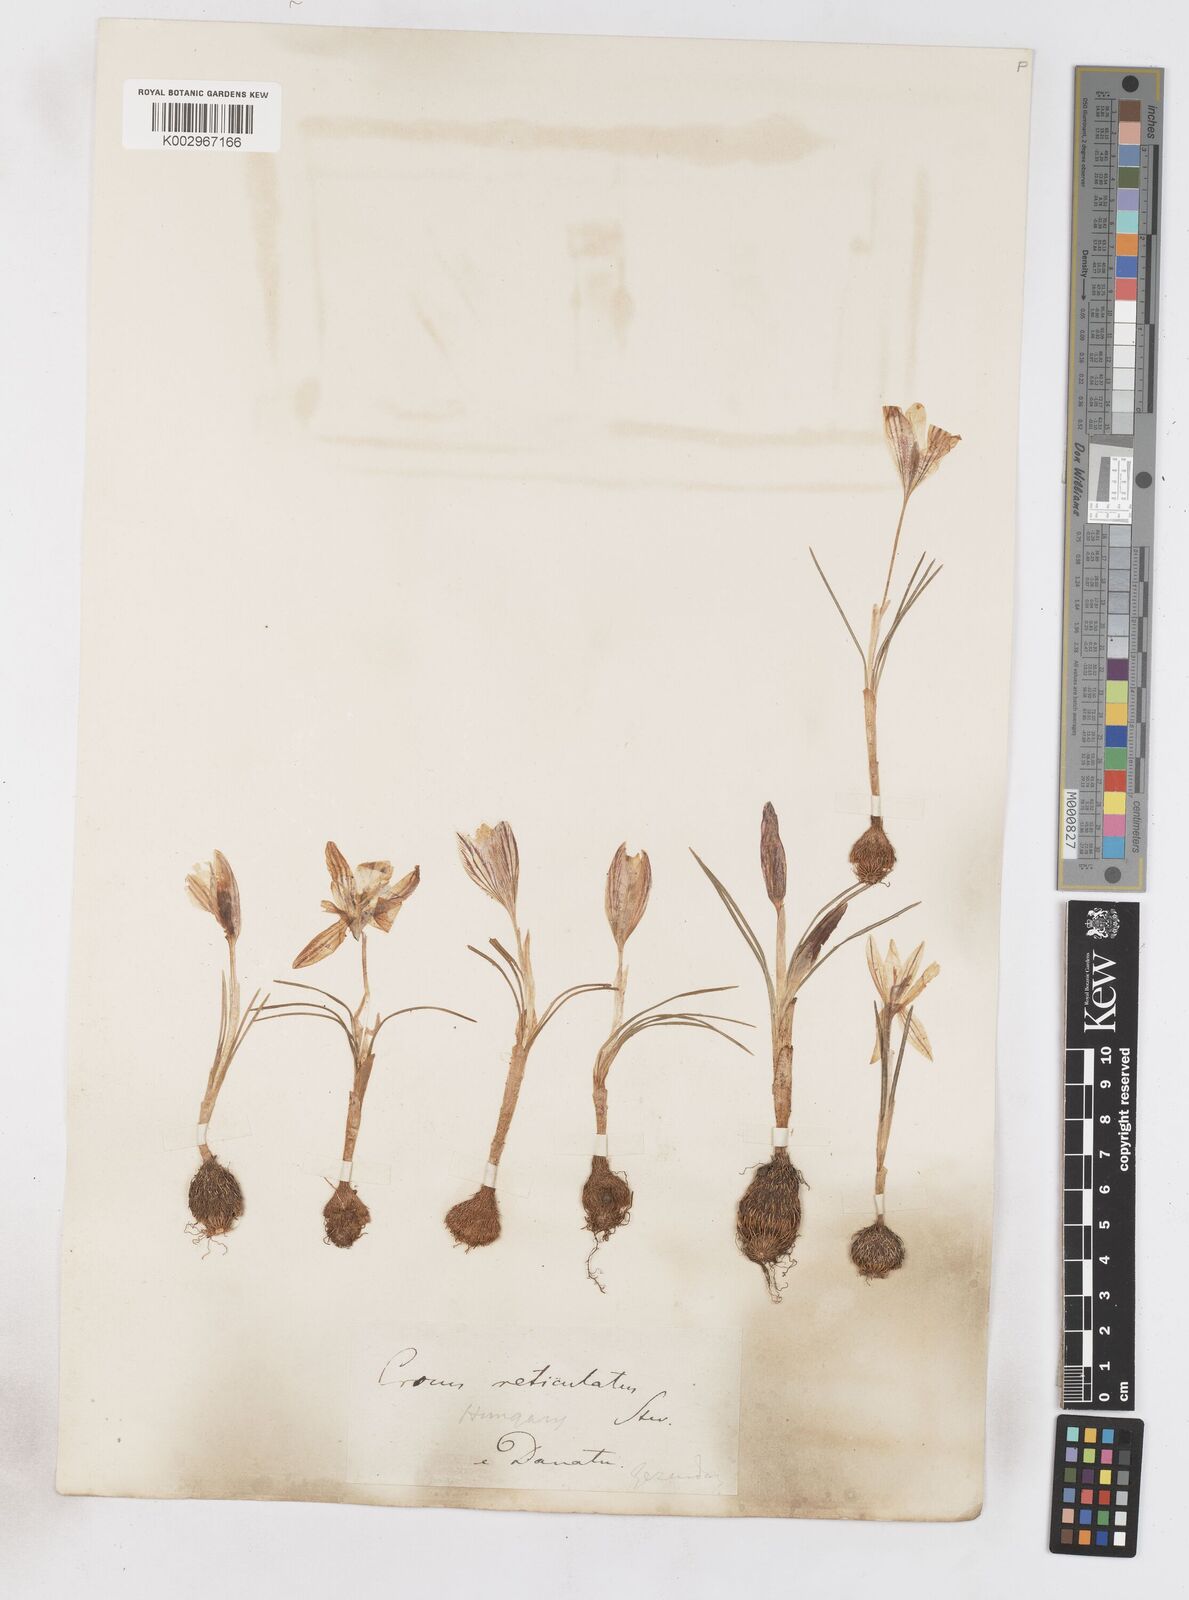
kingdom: Plantae
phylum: Tracheophyta
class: Liliopsida
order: Asparagales
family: Iridaceae
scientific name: Iridaceae
